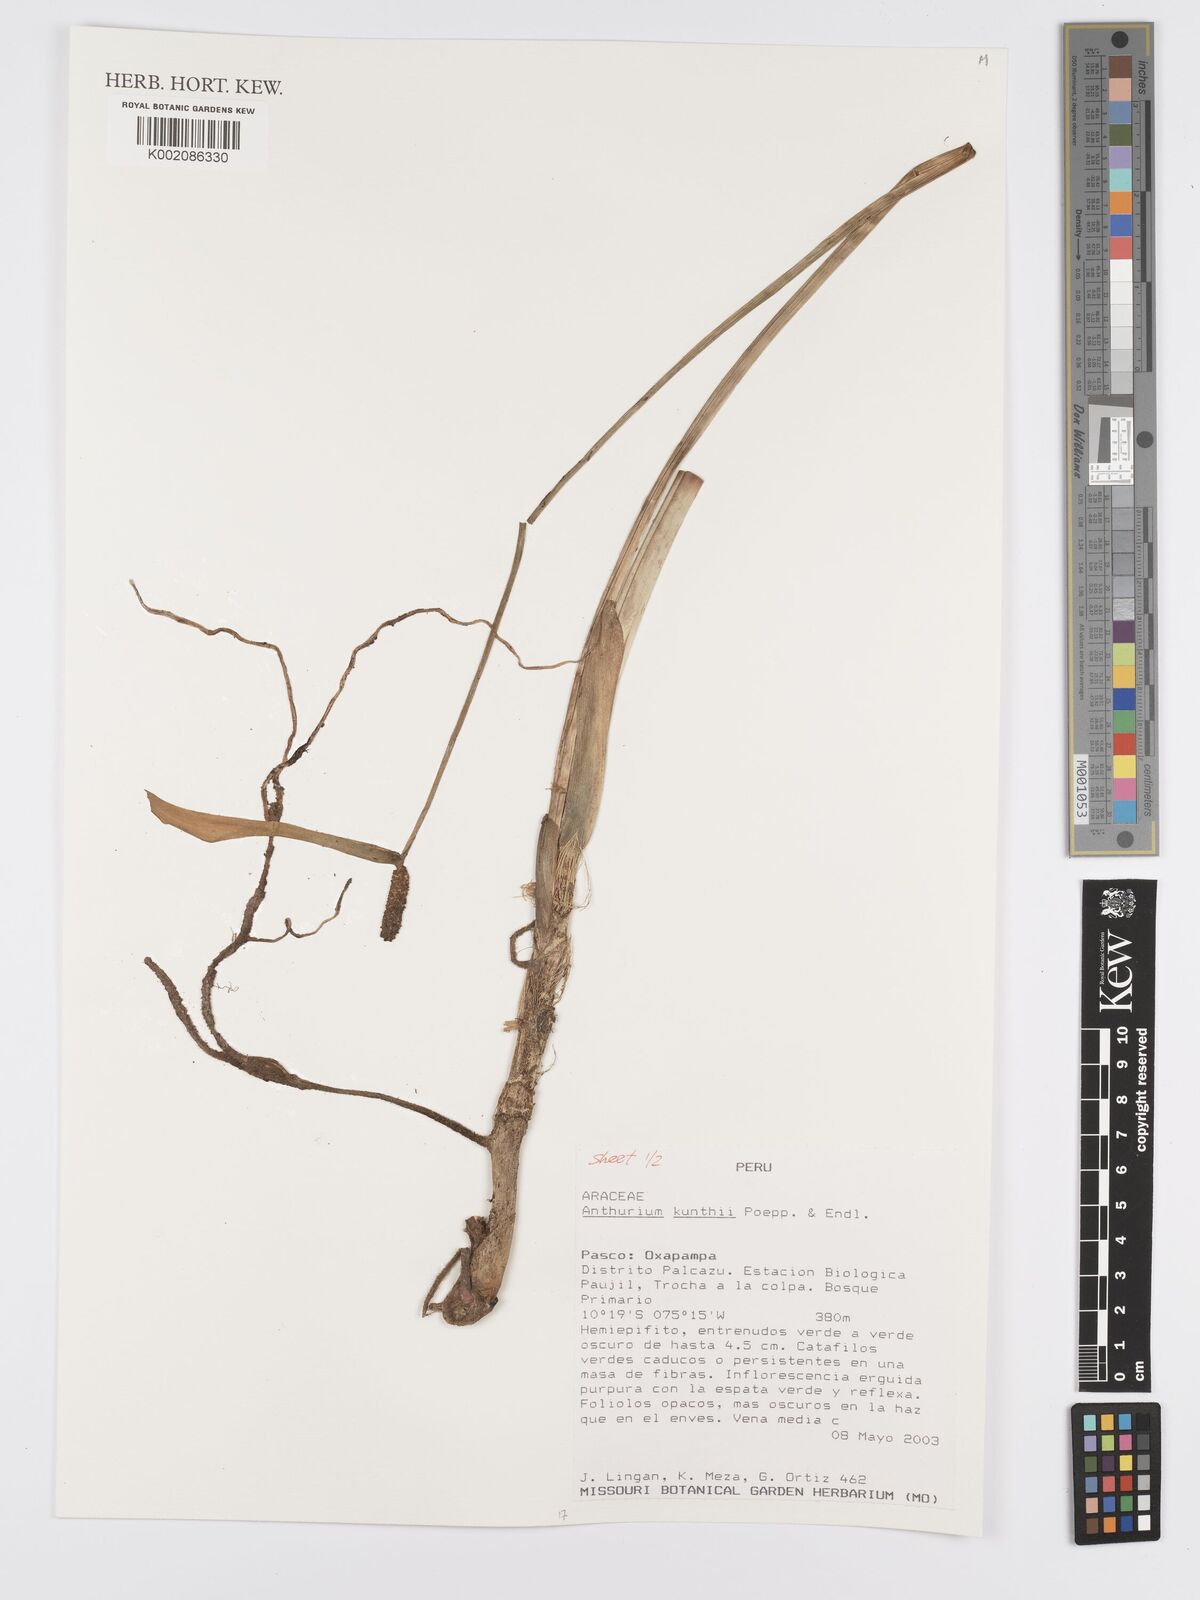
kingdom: Plantae
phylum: Tracheophyta
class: Liliopsida
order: Alismatales
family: Araceae
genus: Anthurium
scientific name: Anthurium kunthii
